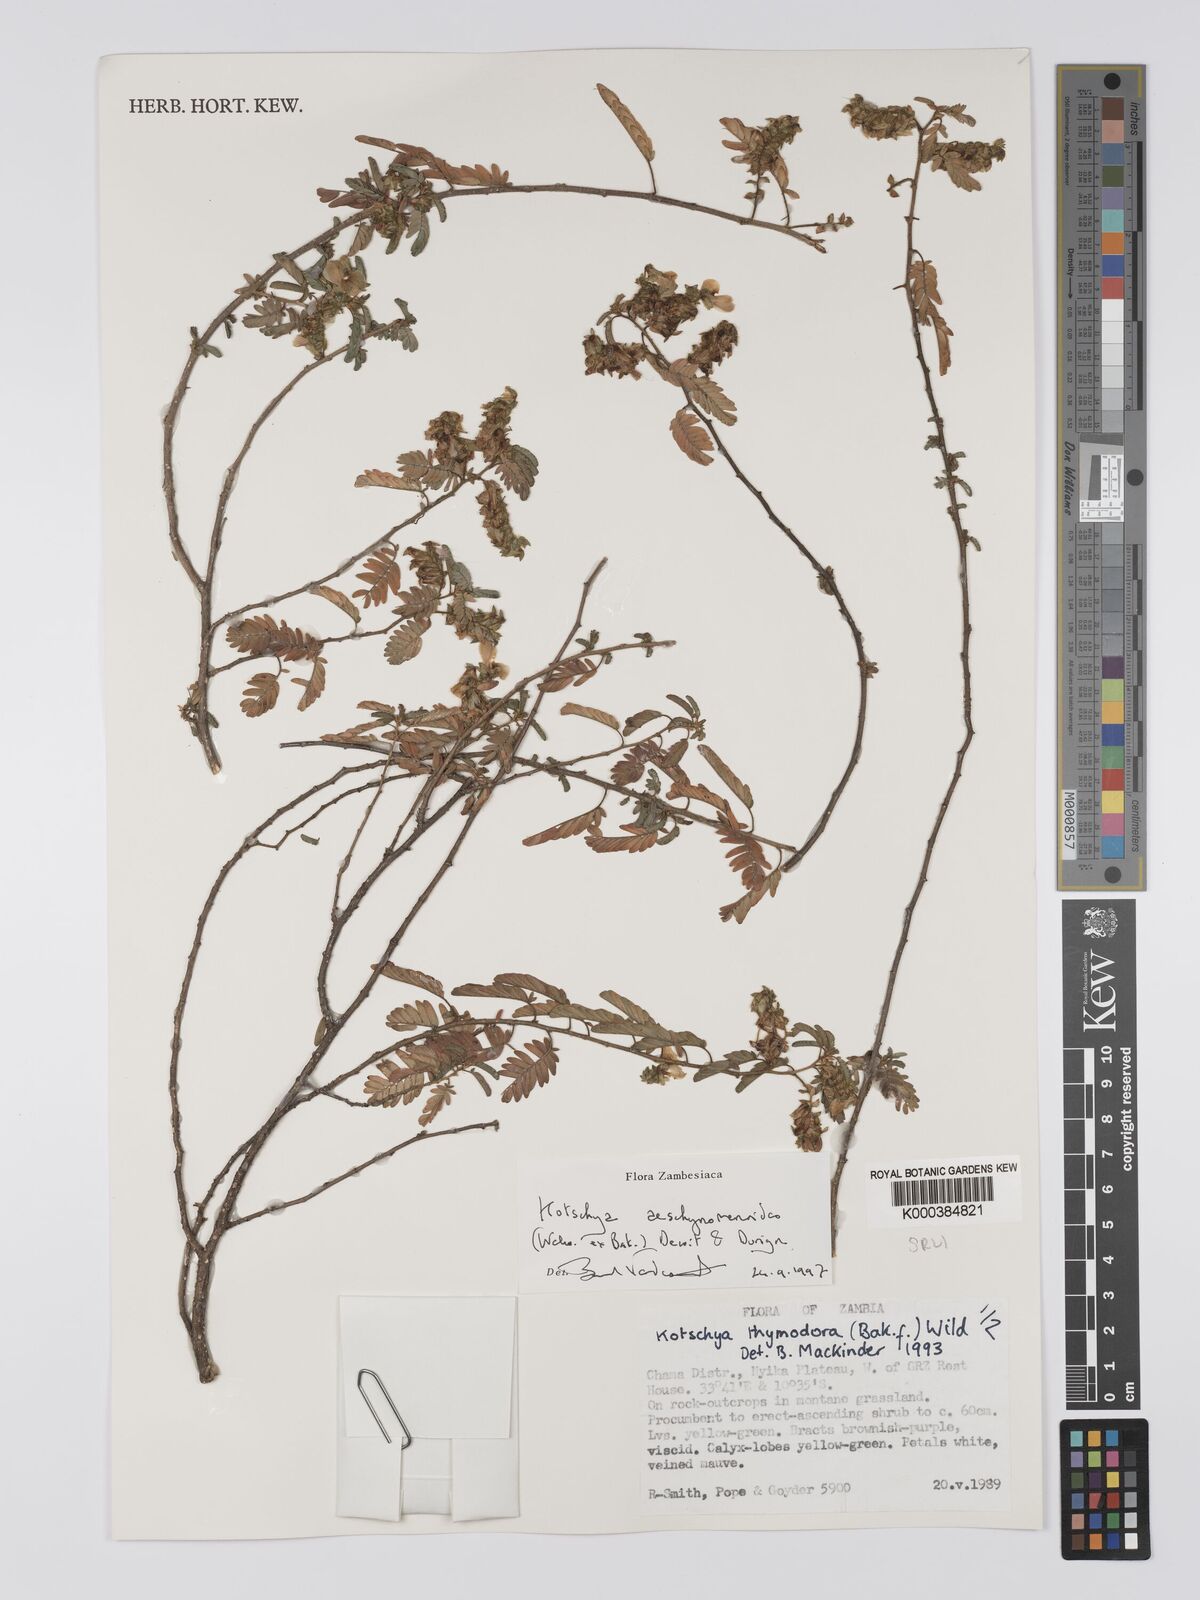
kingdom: Plantae
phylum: Tracheophyta
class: Magnoliopsida
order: Fabales
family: Fabaceae
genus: Kotschya
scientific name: Kotschya aeschynomenoides
